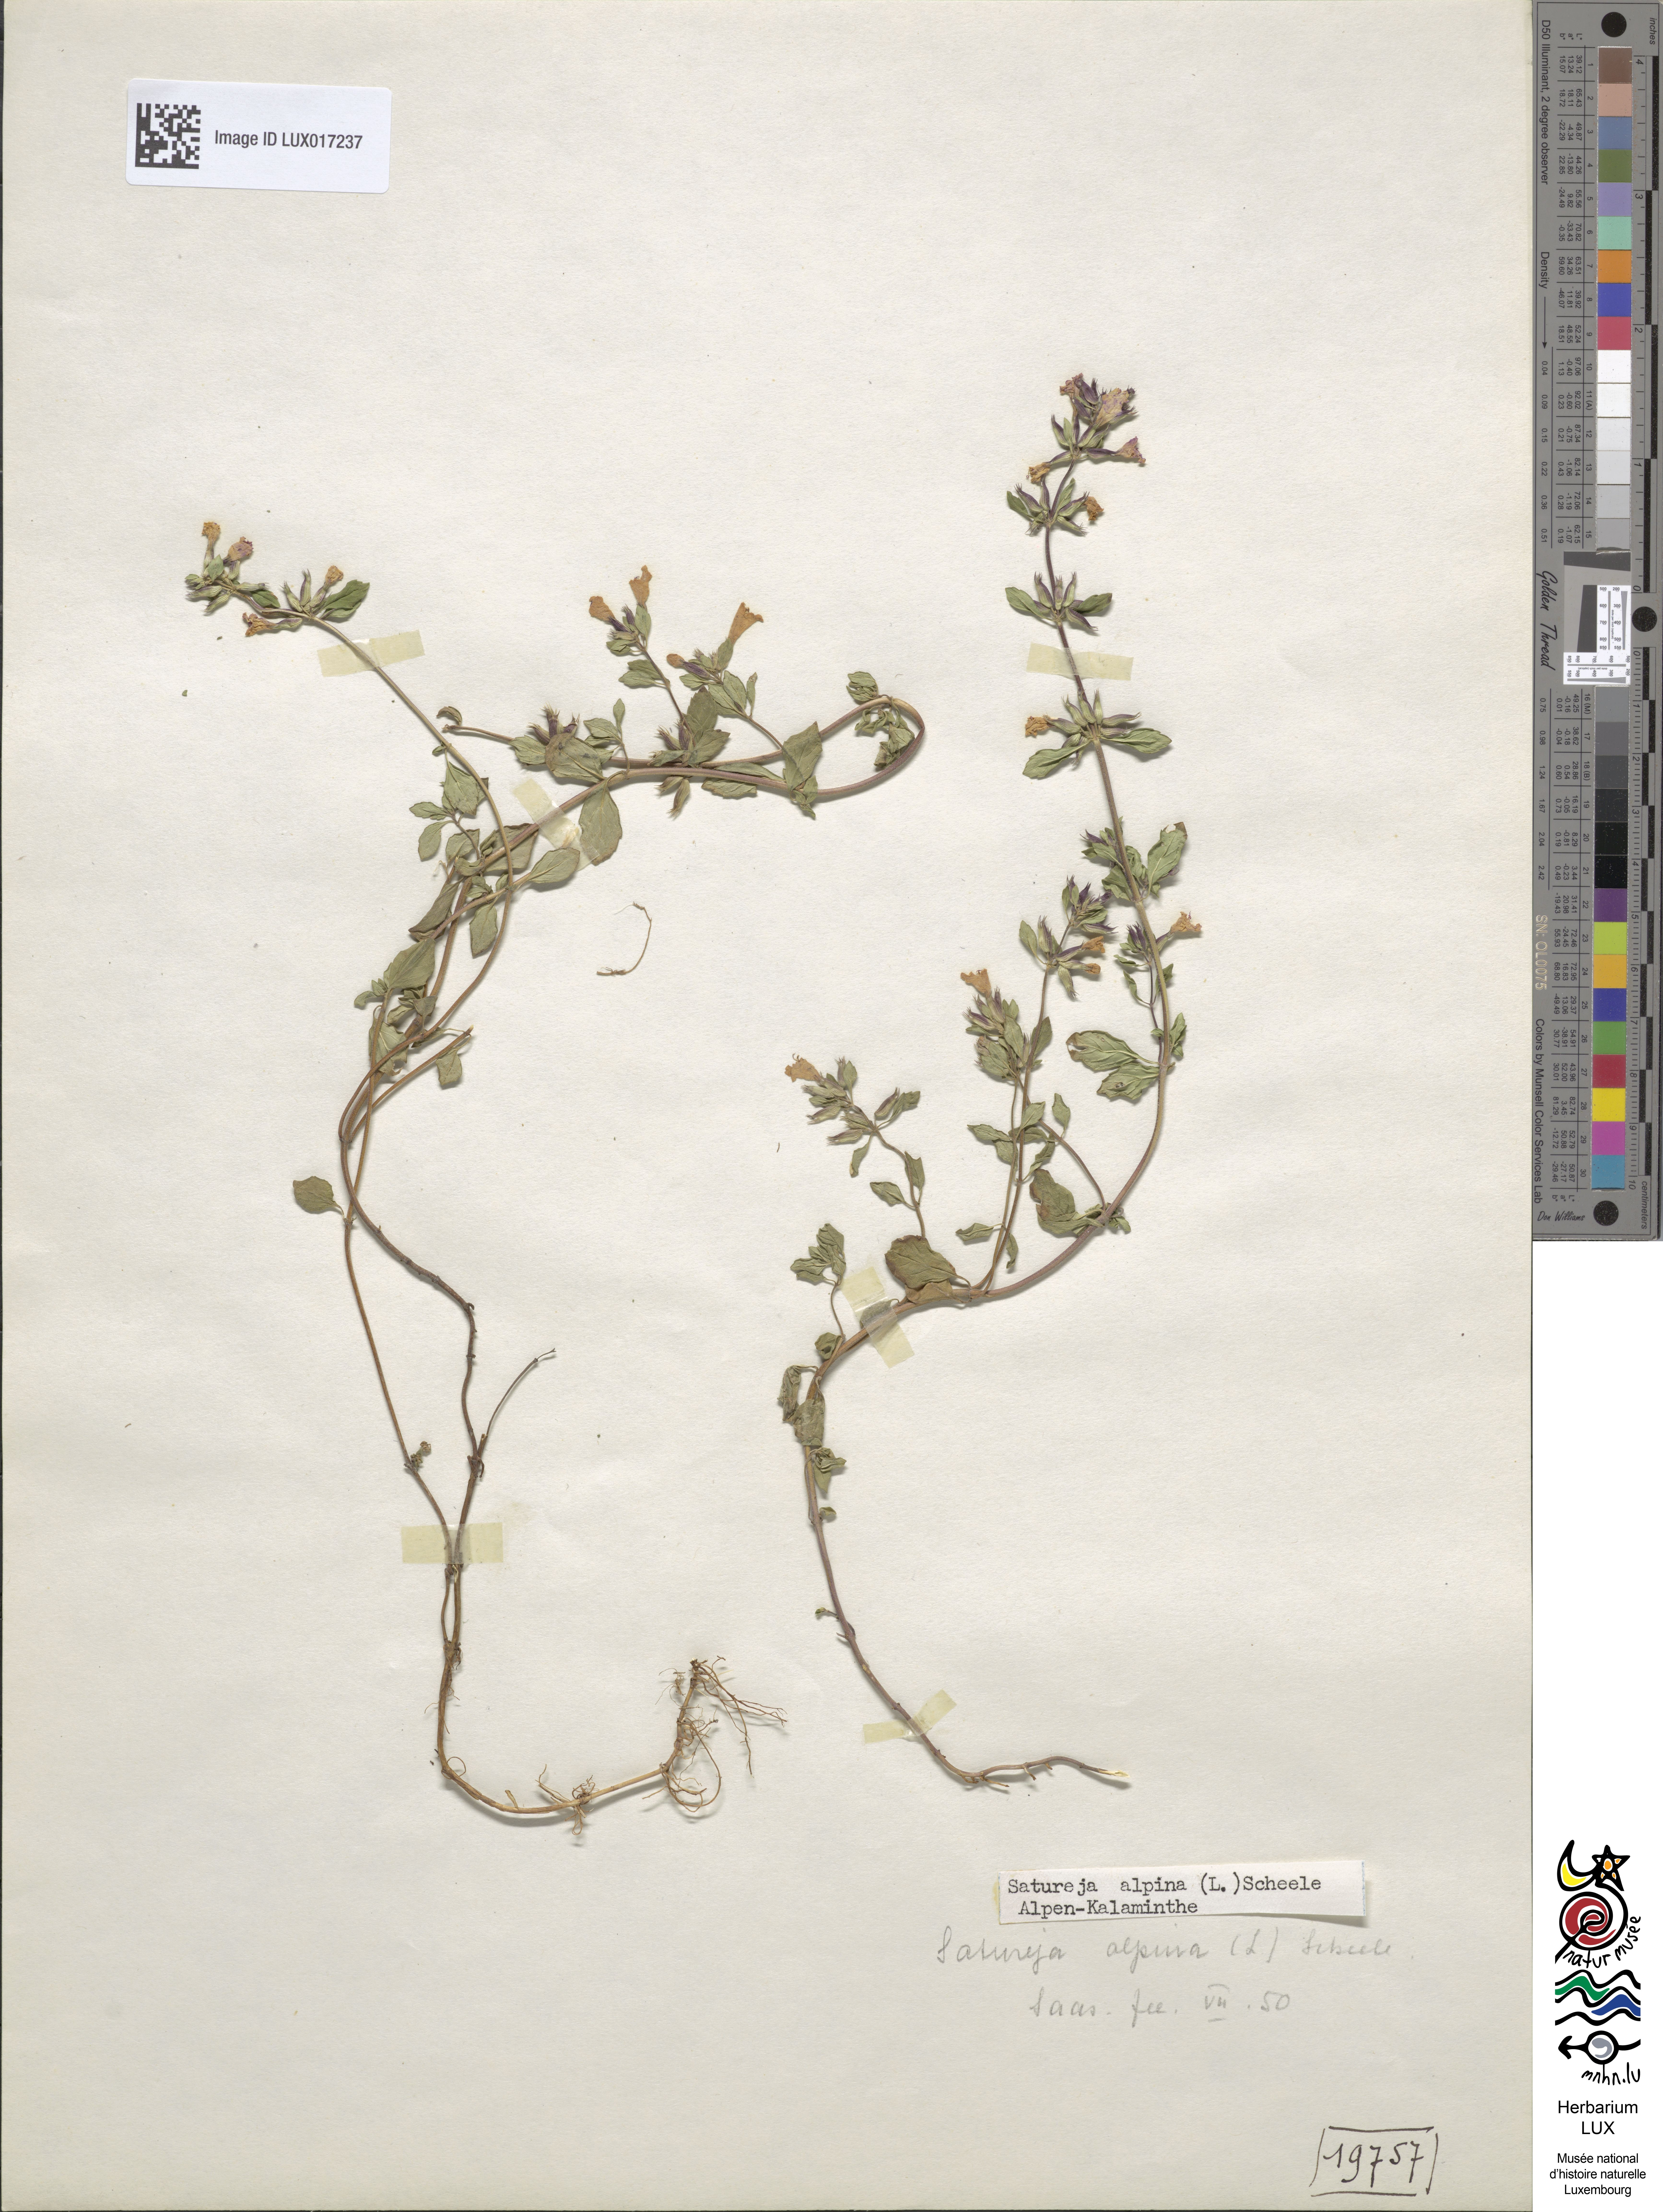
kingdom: Plantae
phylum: Tracheophyta
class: Magnoliopsida
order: Lamiales
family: Lamiaceae
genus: Clinopodium
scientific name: Clinopodium alpinum
